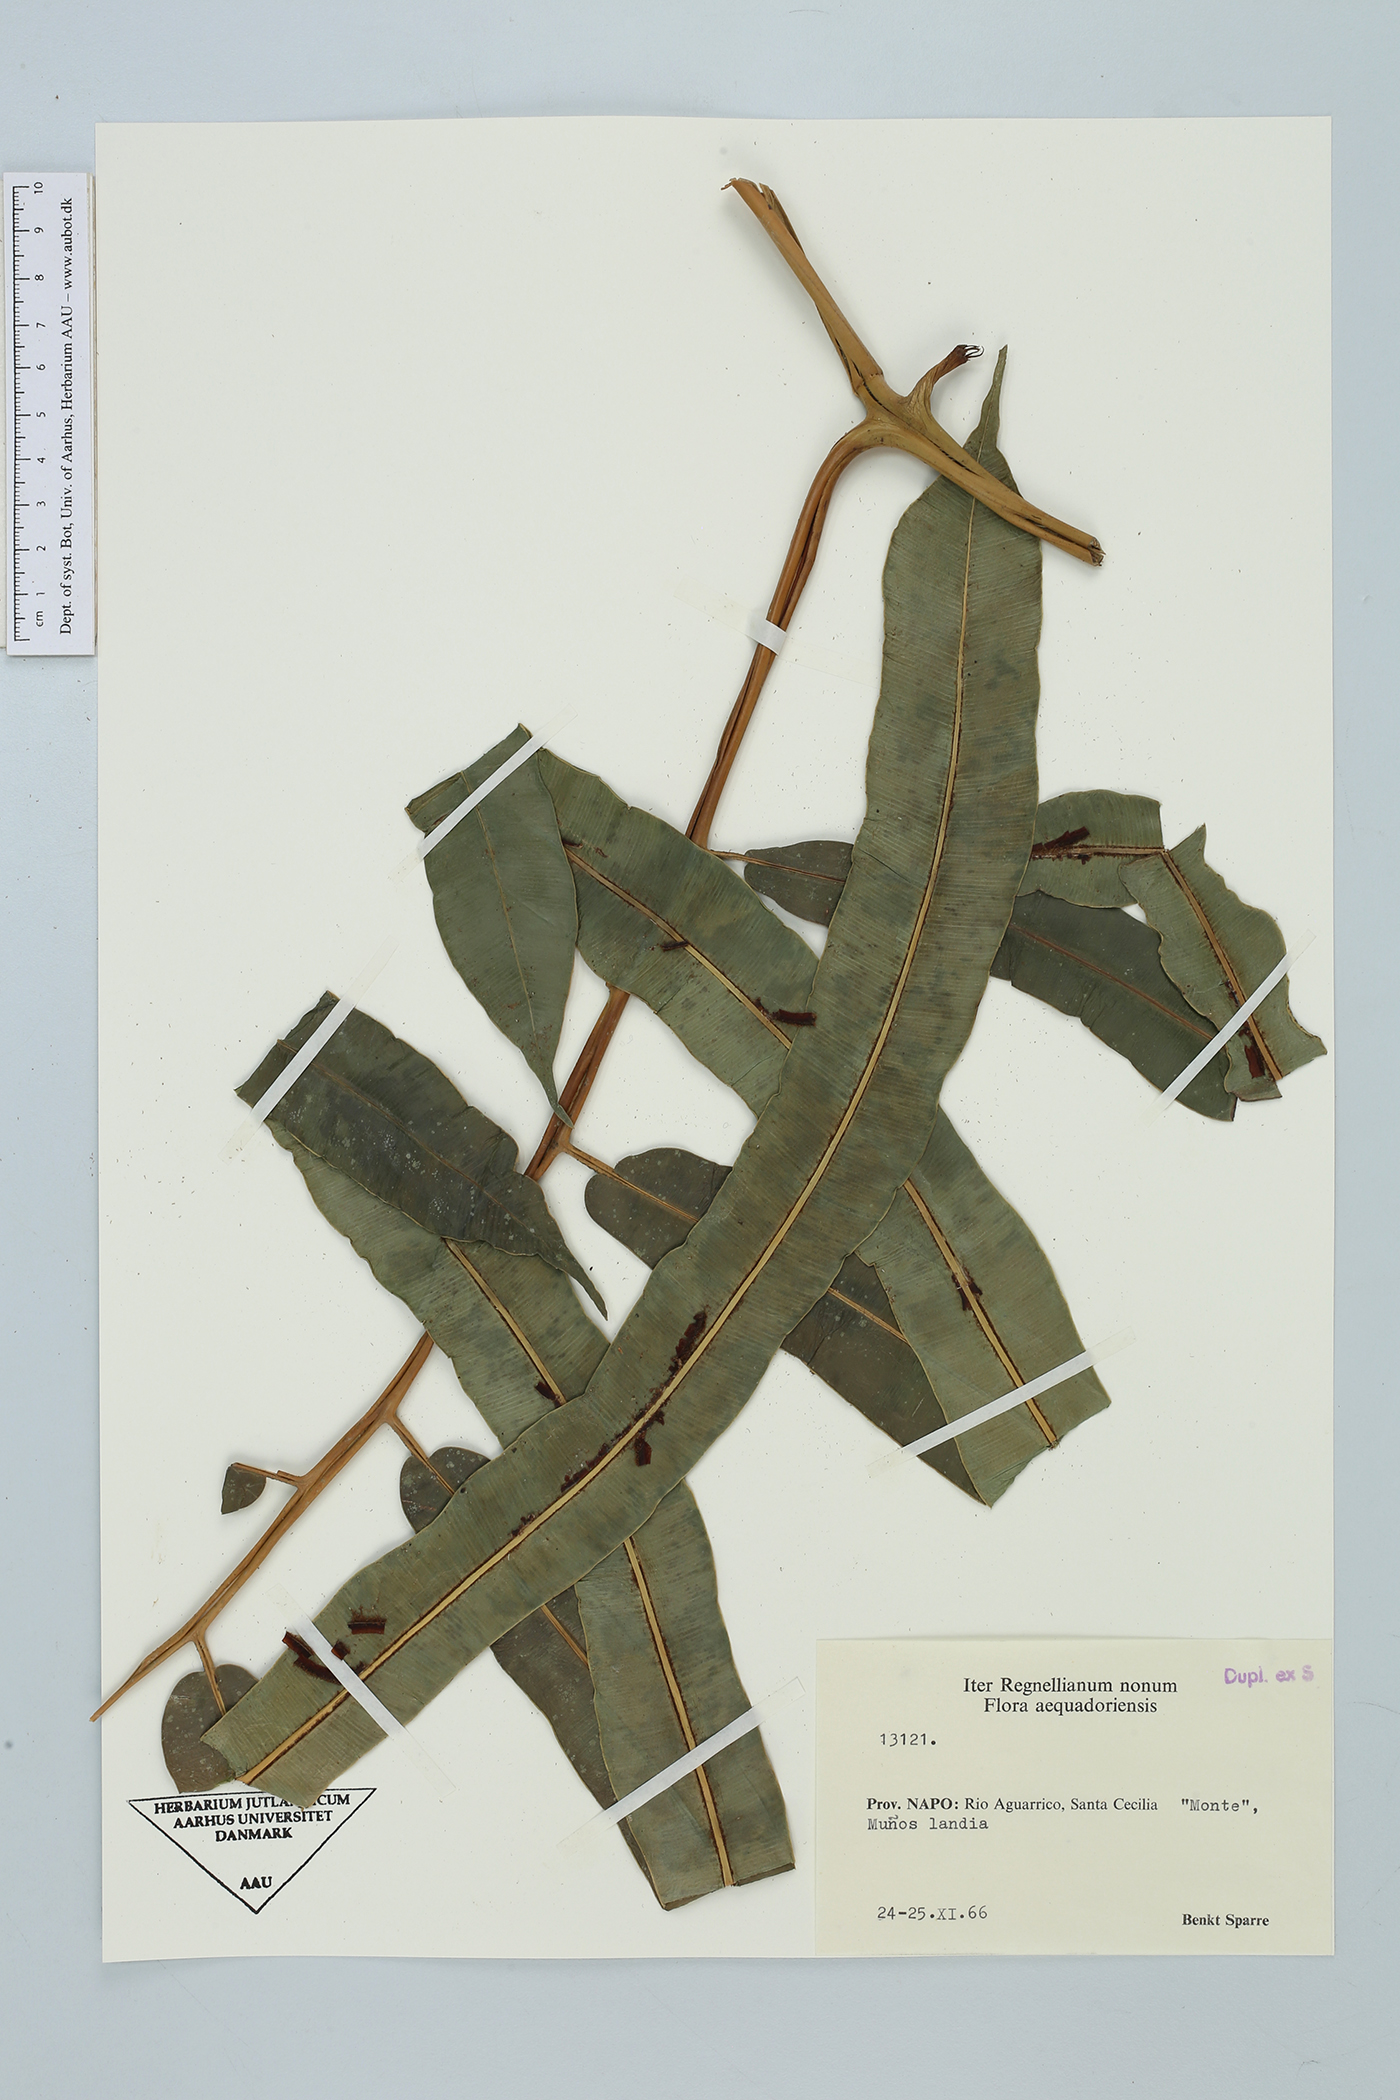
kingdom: Plantae
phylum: Tracheophyta
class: Polypodiopsida
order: Polypodiales
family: Blechnaceae
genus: Salpichlaena
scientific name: Salpichlaena volubilis
